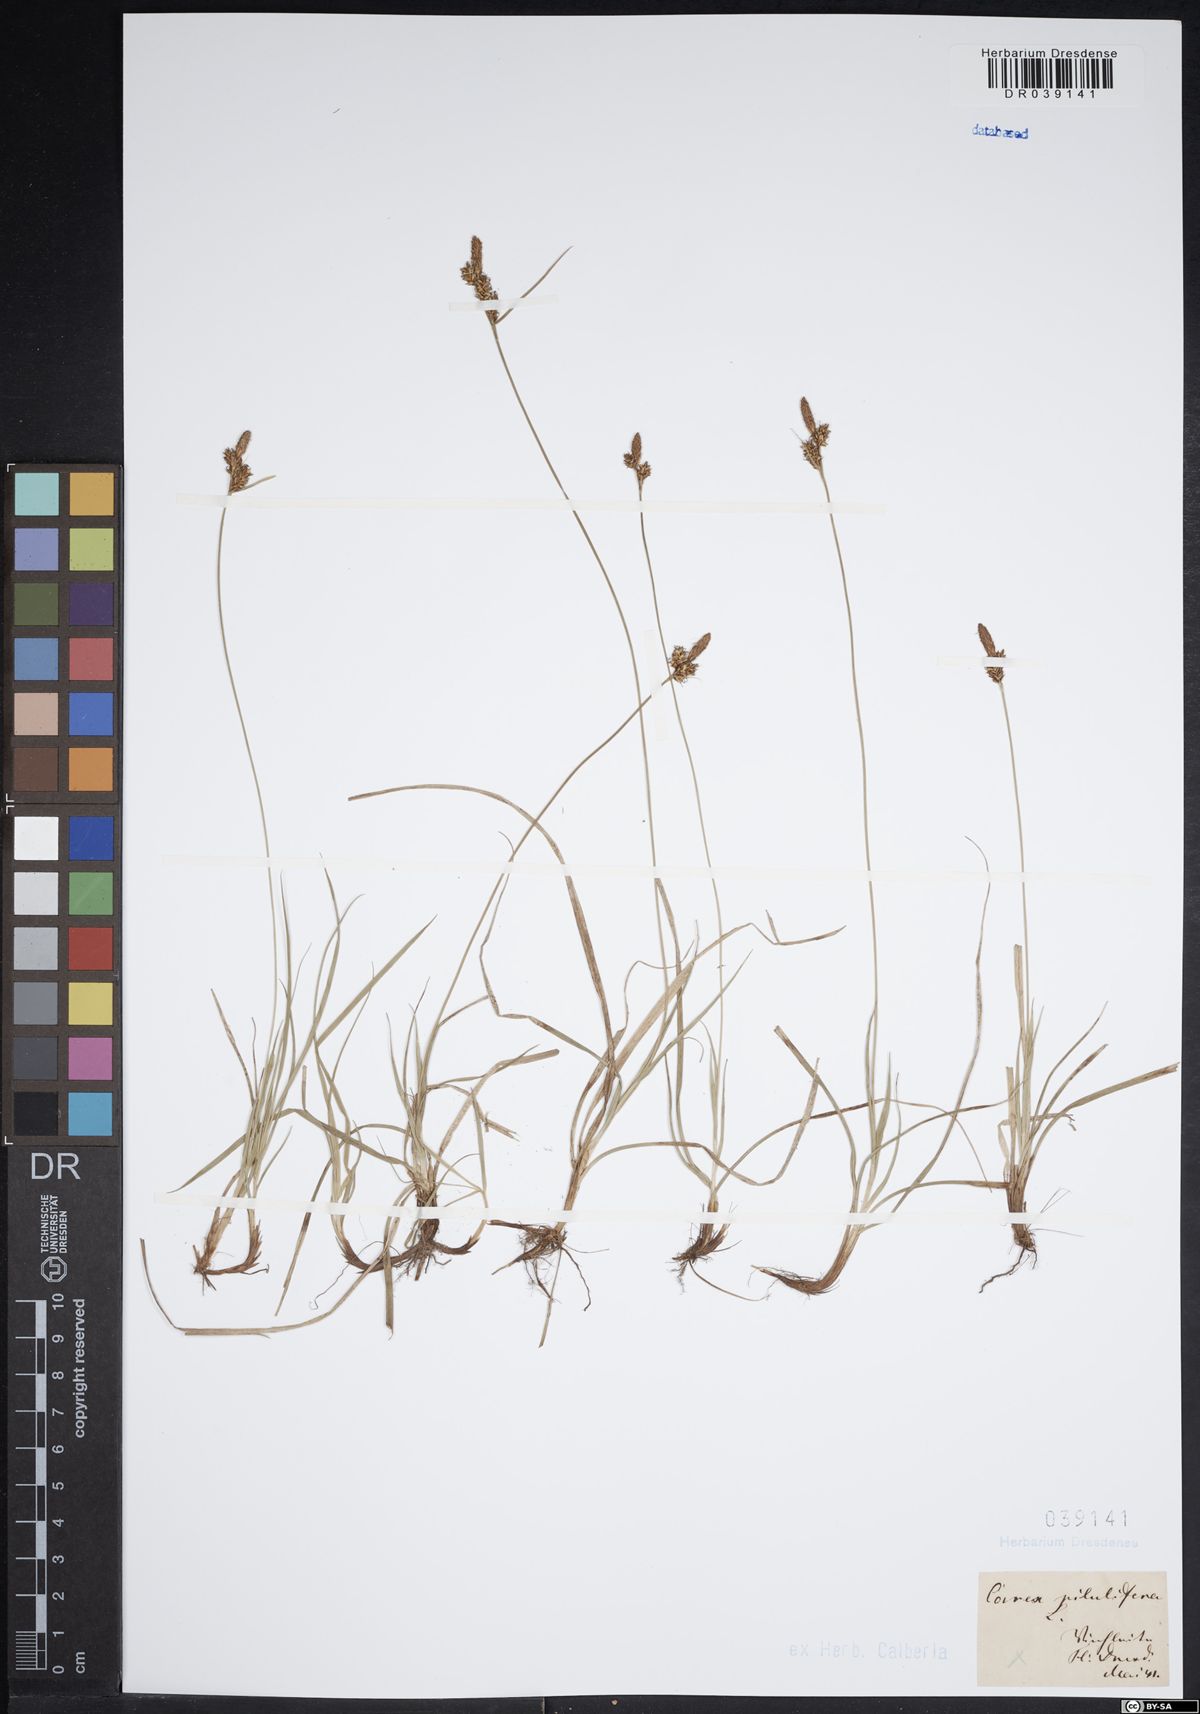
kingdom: Plantae
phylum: Tracheophyta
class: Liliopsida
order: Poales
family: Cyperaceae
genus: Carex
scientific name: Carex pilulifera
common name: Pill sedge
